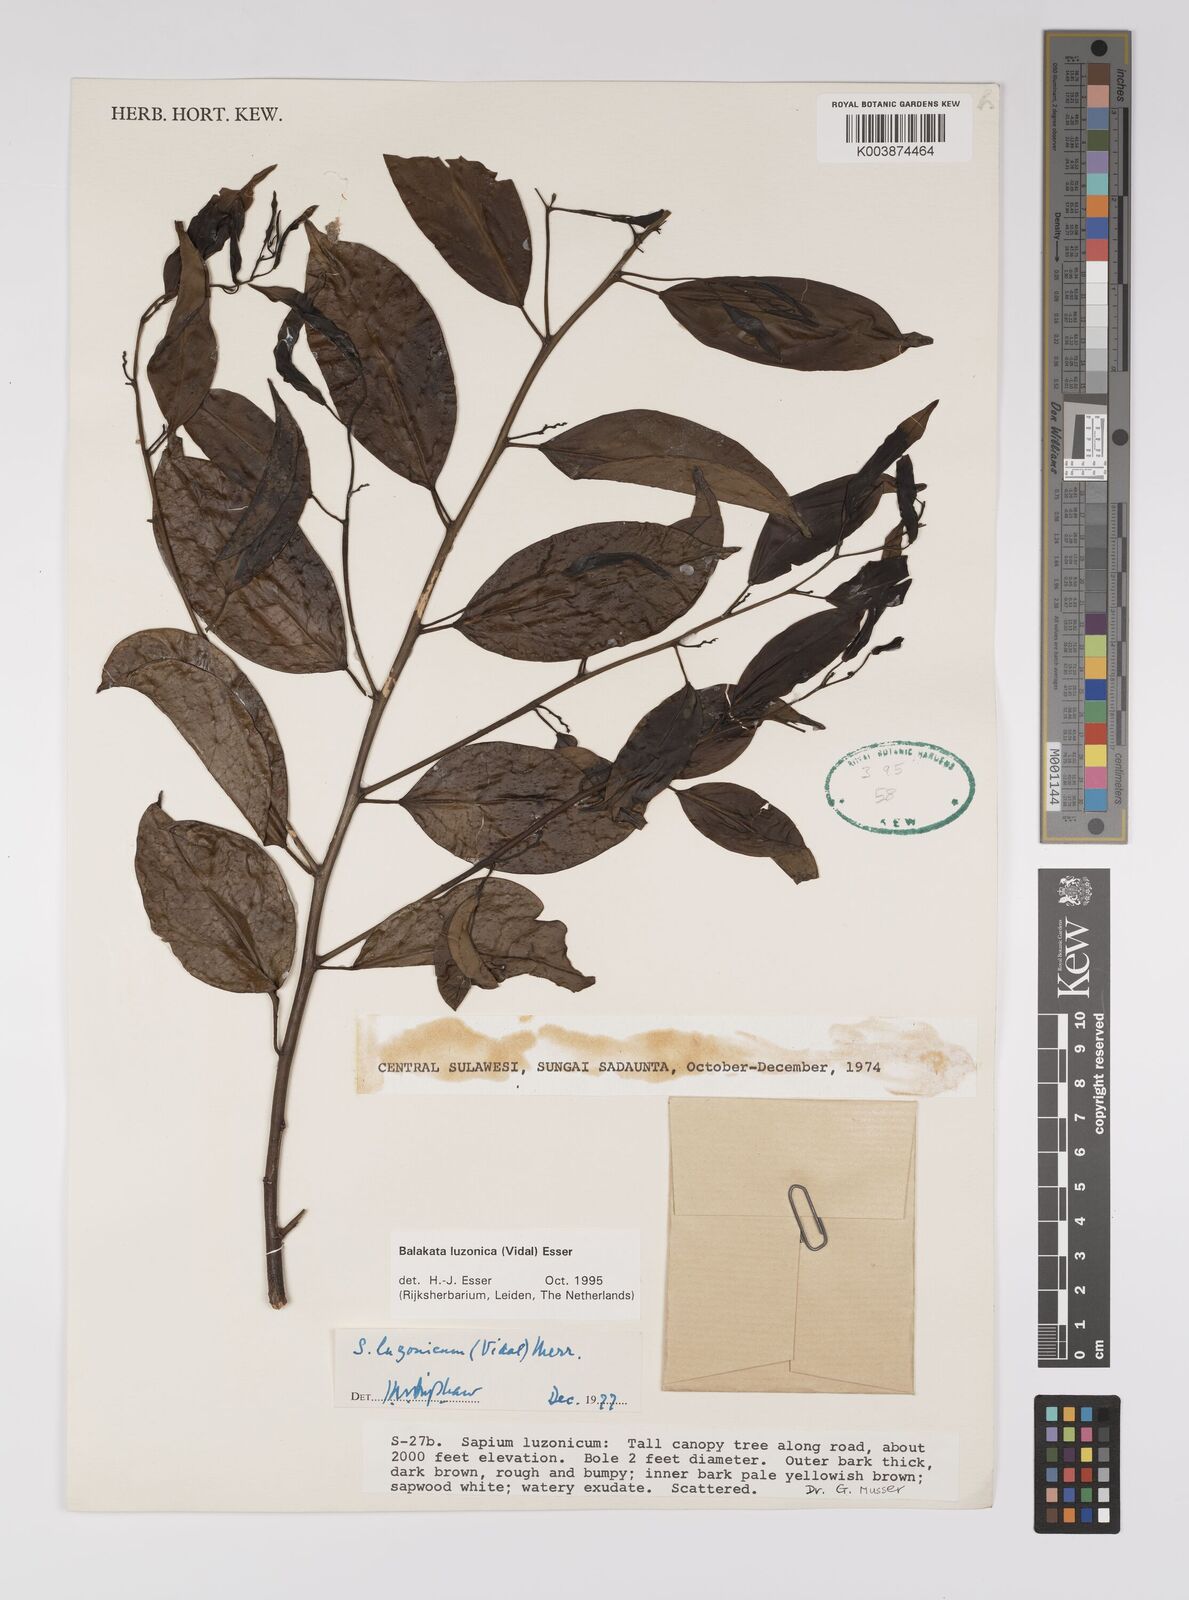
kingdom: Plantae
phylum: Tracheophyta
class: Magnoliopsida
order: Malpighiales
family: Euphorbiaceae
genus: Balakata
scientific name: Balakata luzonica
